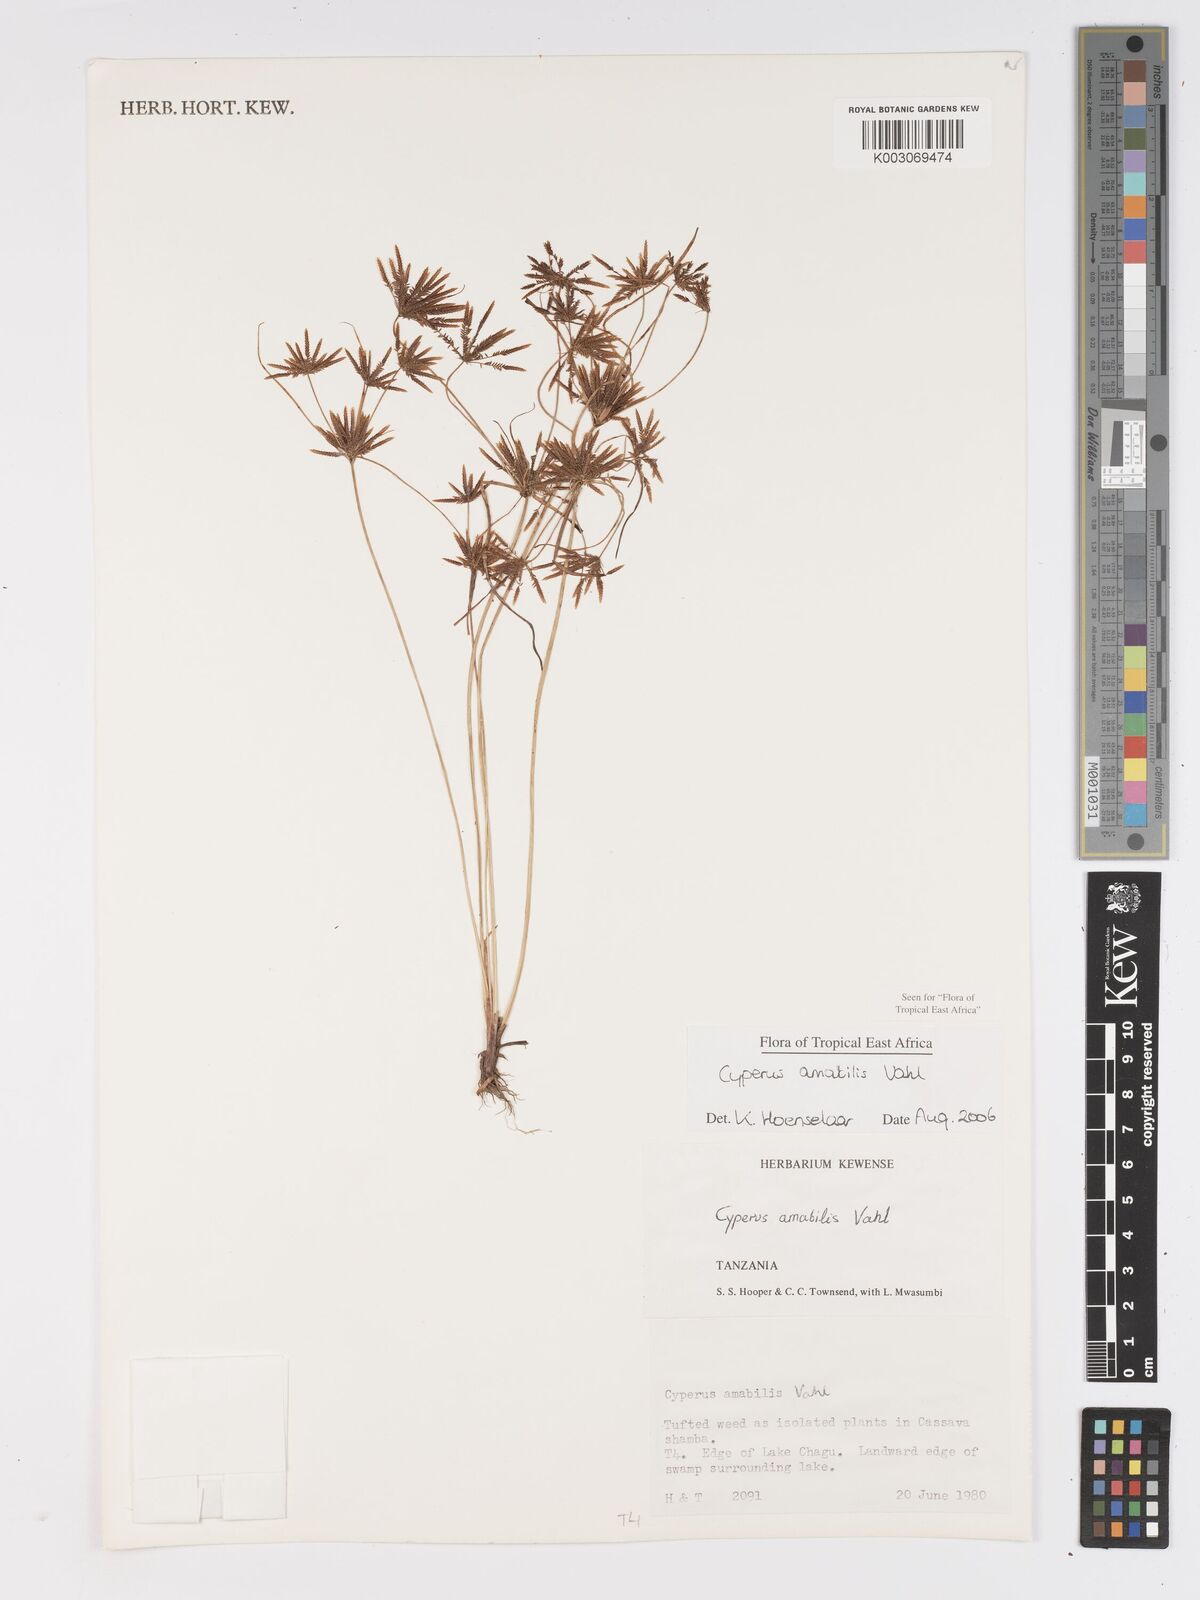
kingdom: Plantae
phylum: Tracheophyta
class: Liliopsida
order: Poales
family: Cyperaceae
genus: Cyperus
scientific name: Cyperus amabilis
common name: Foothill flat sedge
